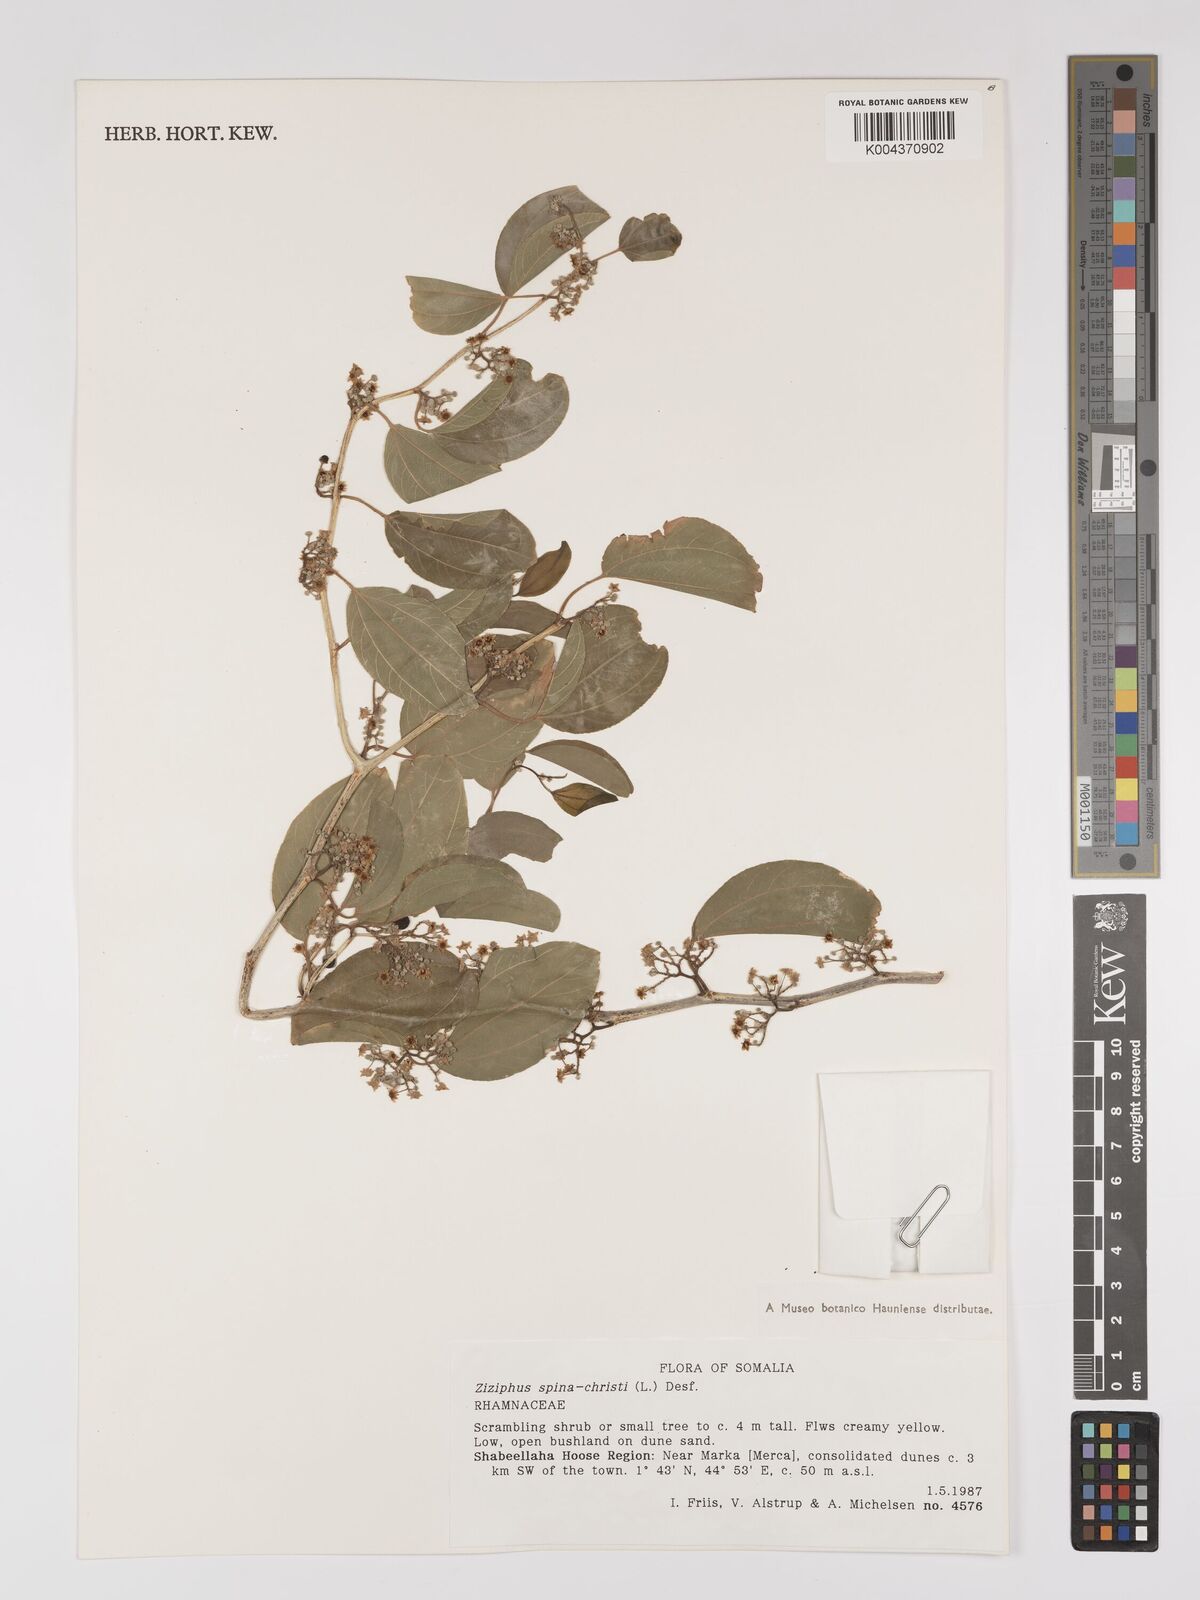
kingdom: Plantae
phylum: Tracheophyta
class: Magnoliopsida
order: Rosales
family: Rhamnaceae
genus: Ziziphus
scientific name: Ziziphus spina-christi
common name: Syrian christ-thorn
